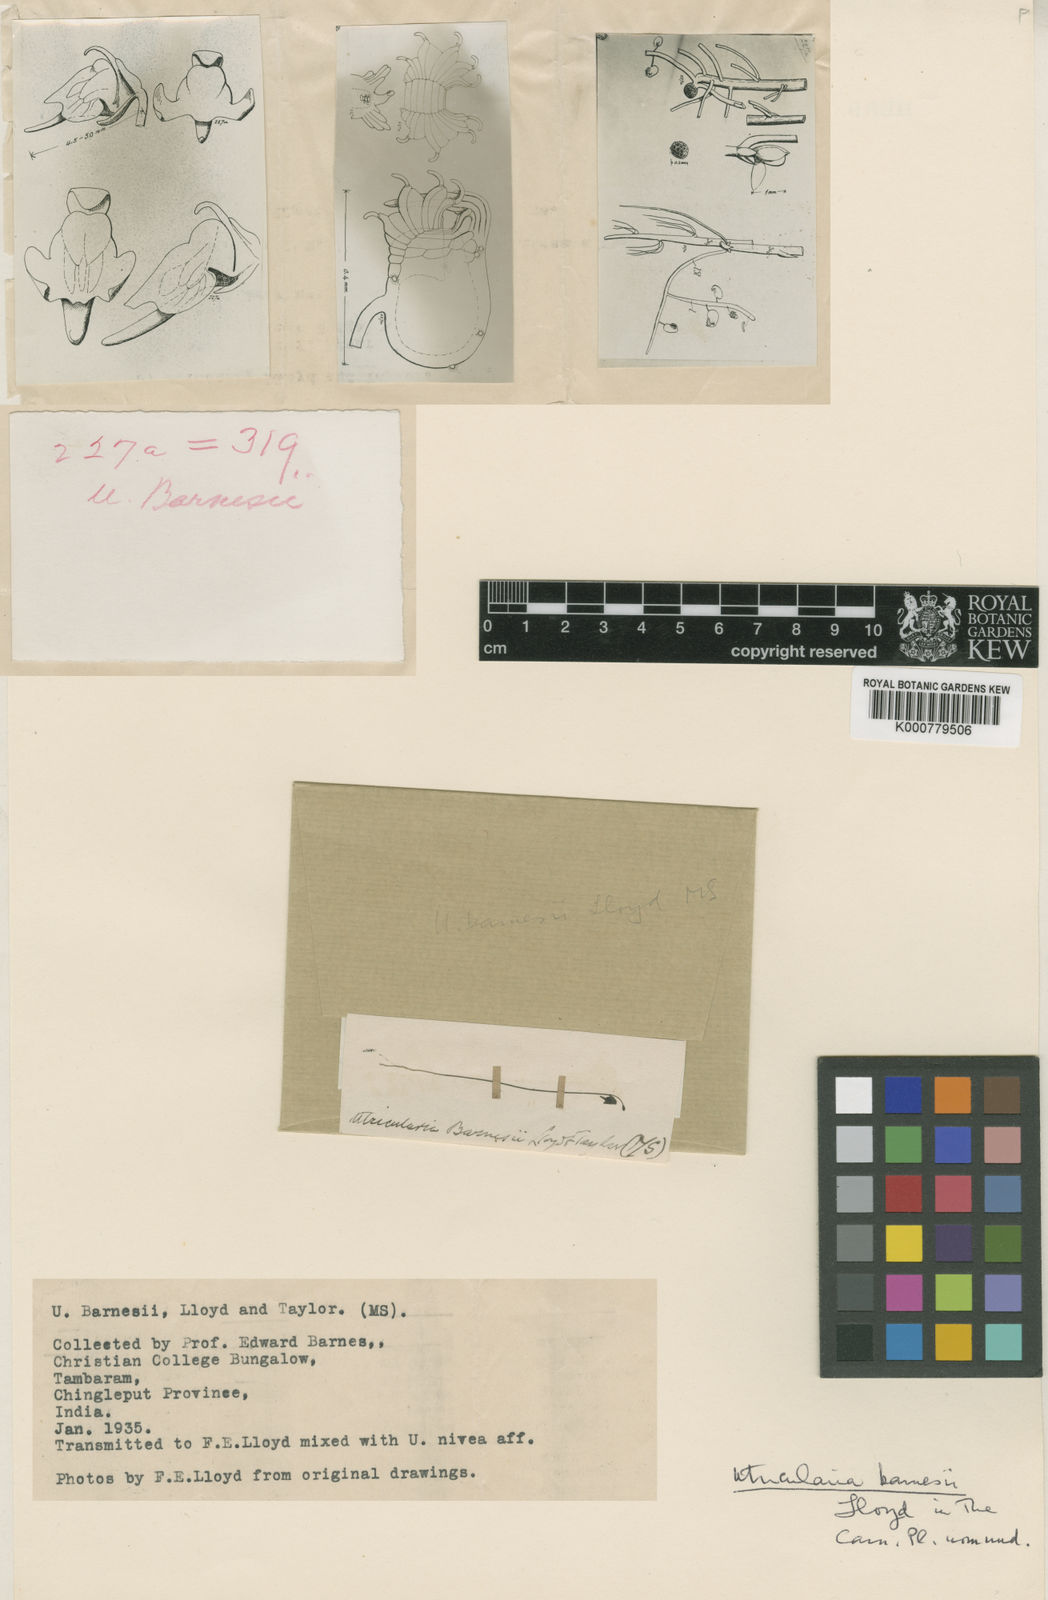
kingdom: Plantae
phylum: Tracheophyta
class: Magnoliopsida
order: Lamiales
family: Lentibulariaceae
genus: Utricularia
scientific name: Utricularia minutissima
